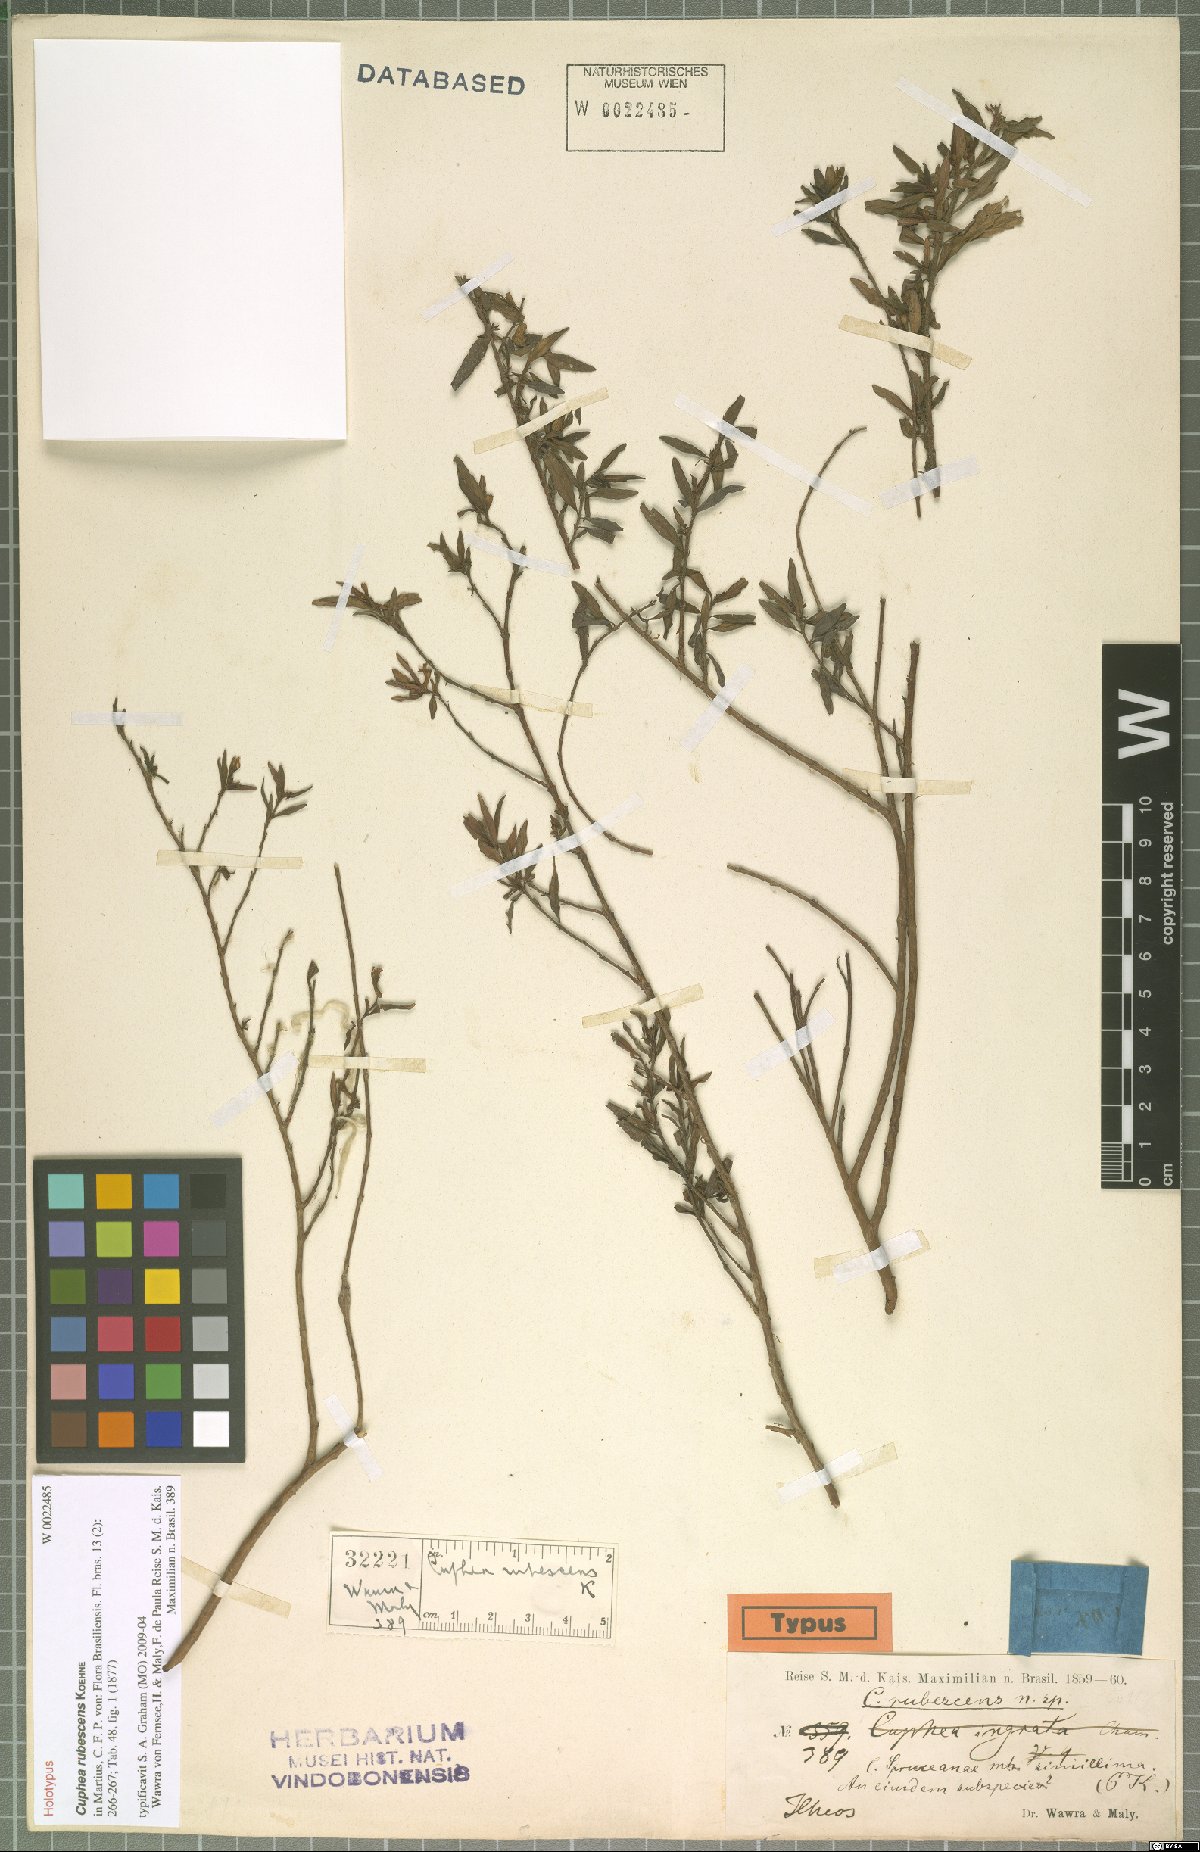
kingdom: Plantae
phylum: Tracheophyta
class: Magnoliopsida
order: Myrtales
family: Lythraceae
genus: Cuphea
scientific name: Cuphea rubescens
